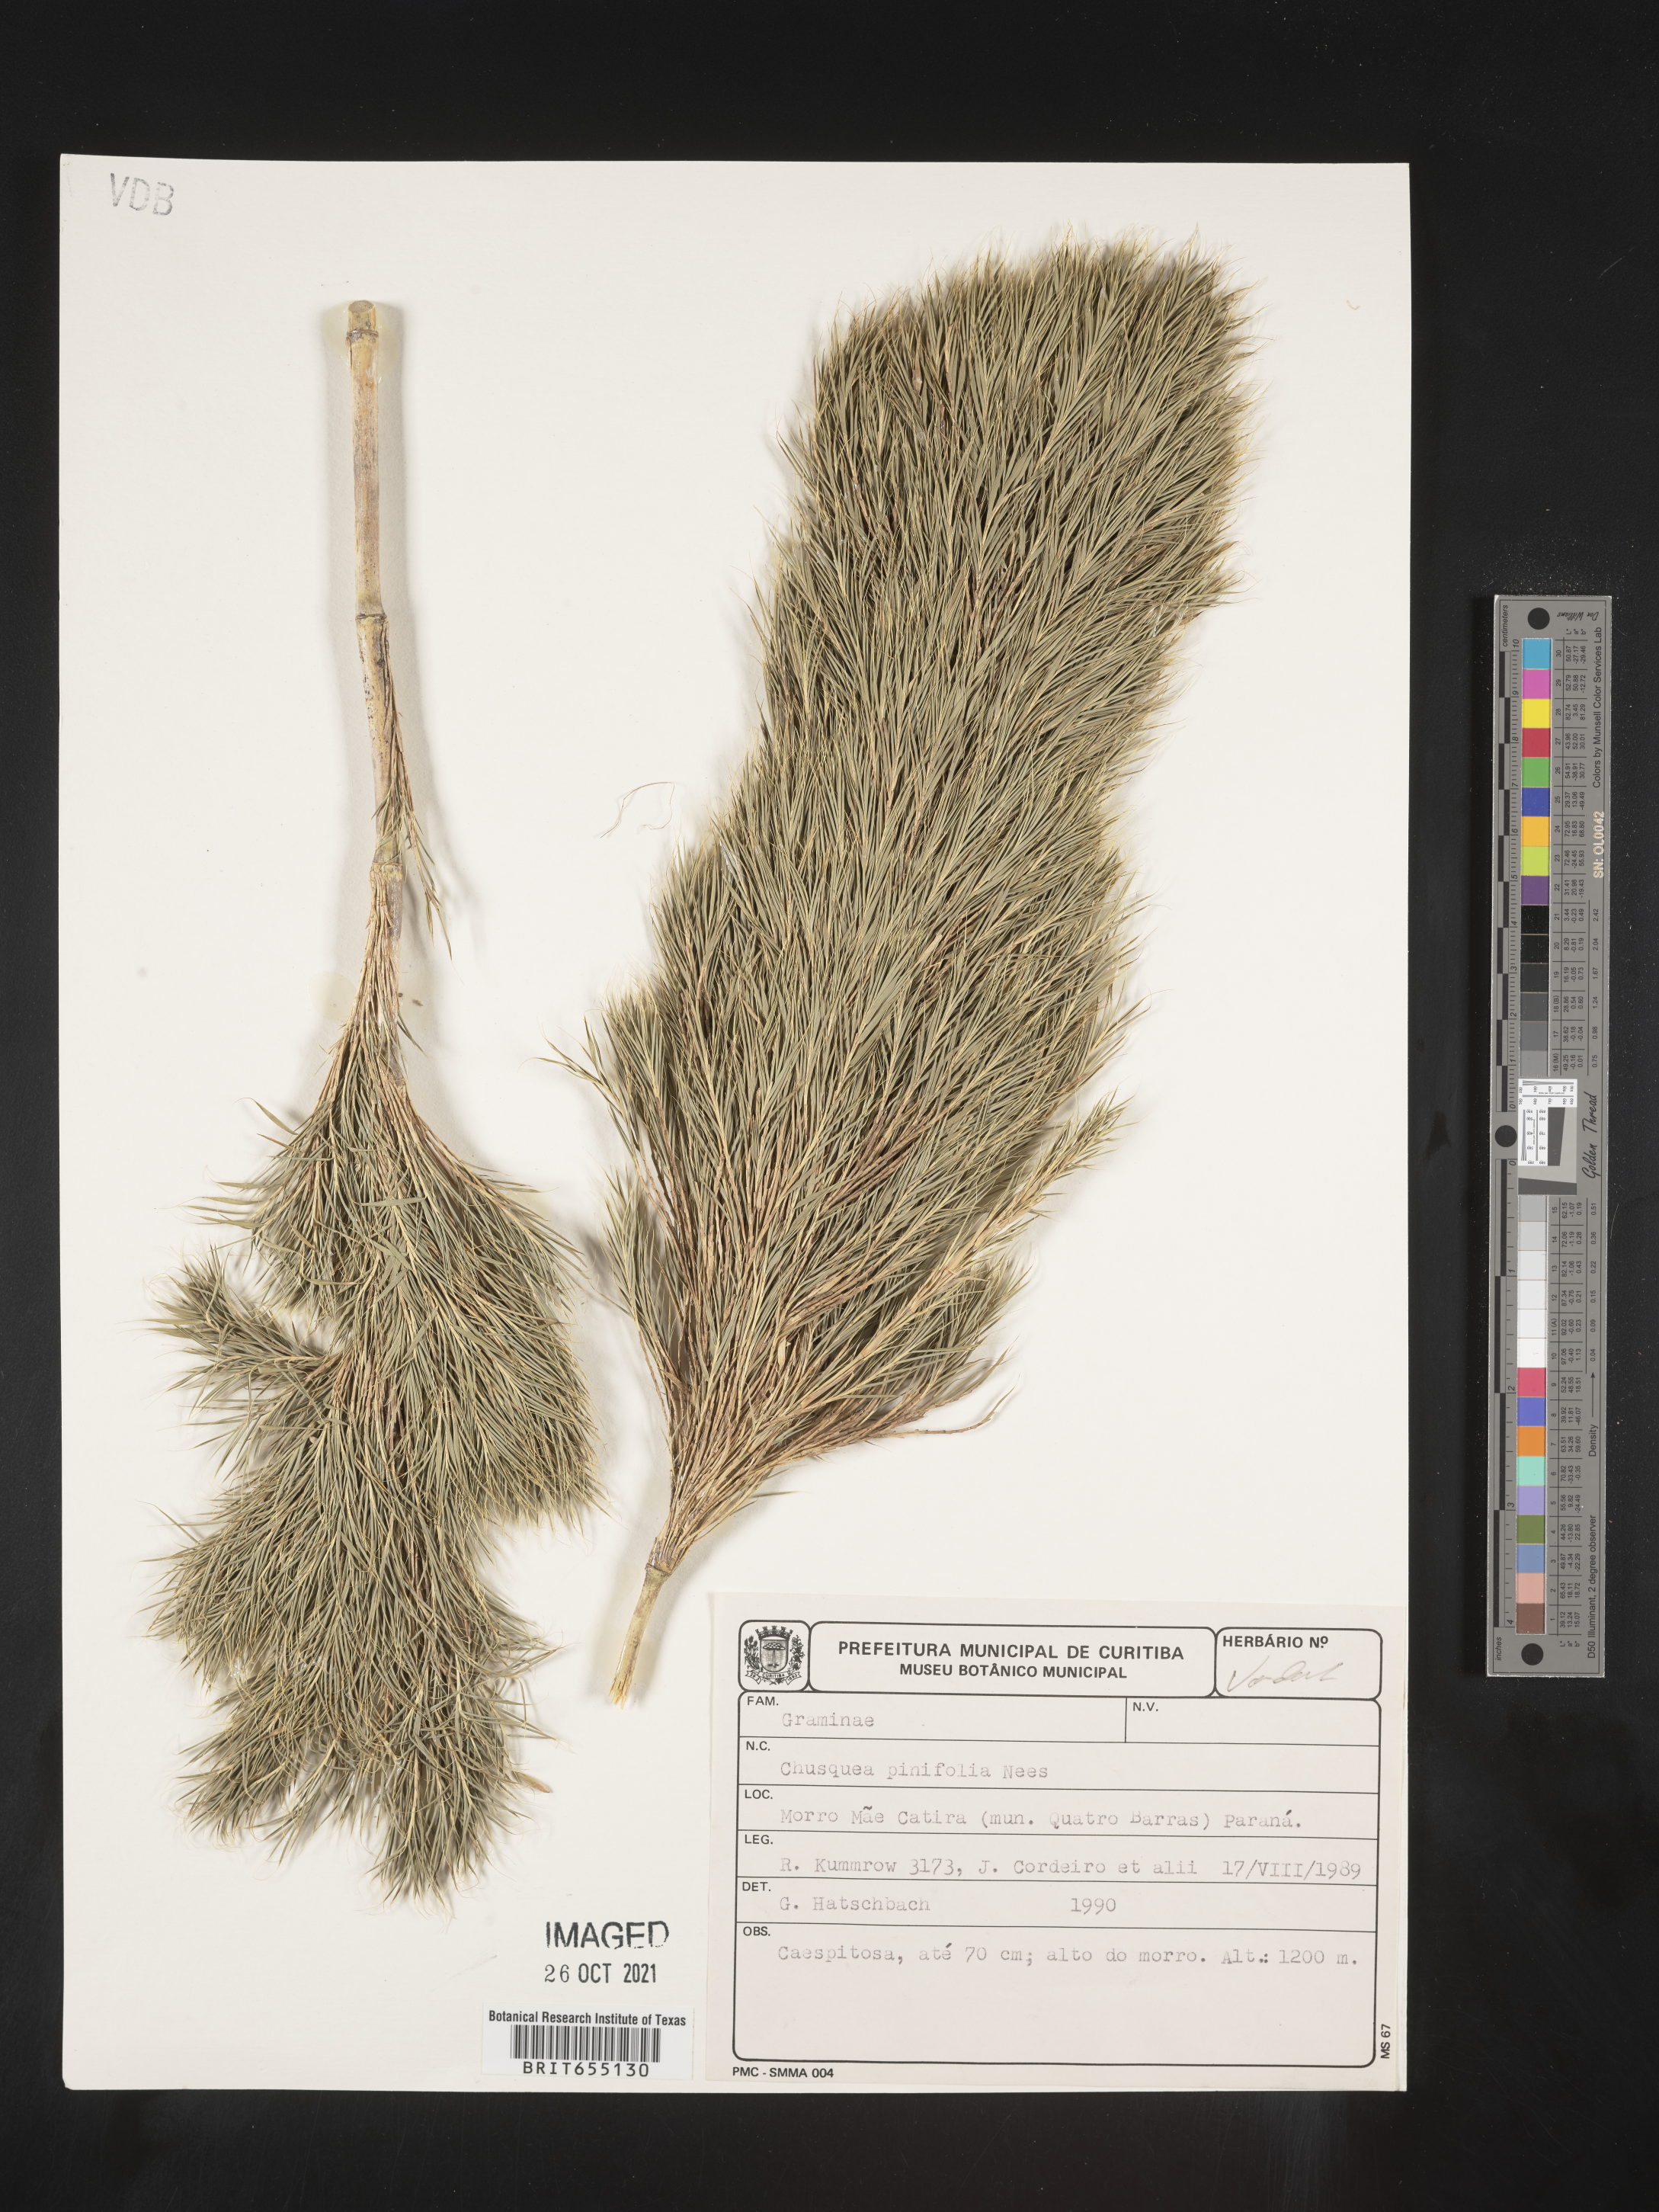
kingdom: Plantae
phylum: Tracheophyta
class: Liliopsida
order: Poales
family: Poaceae
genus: Chusquea
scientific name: Chusquea
